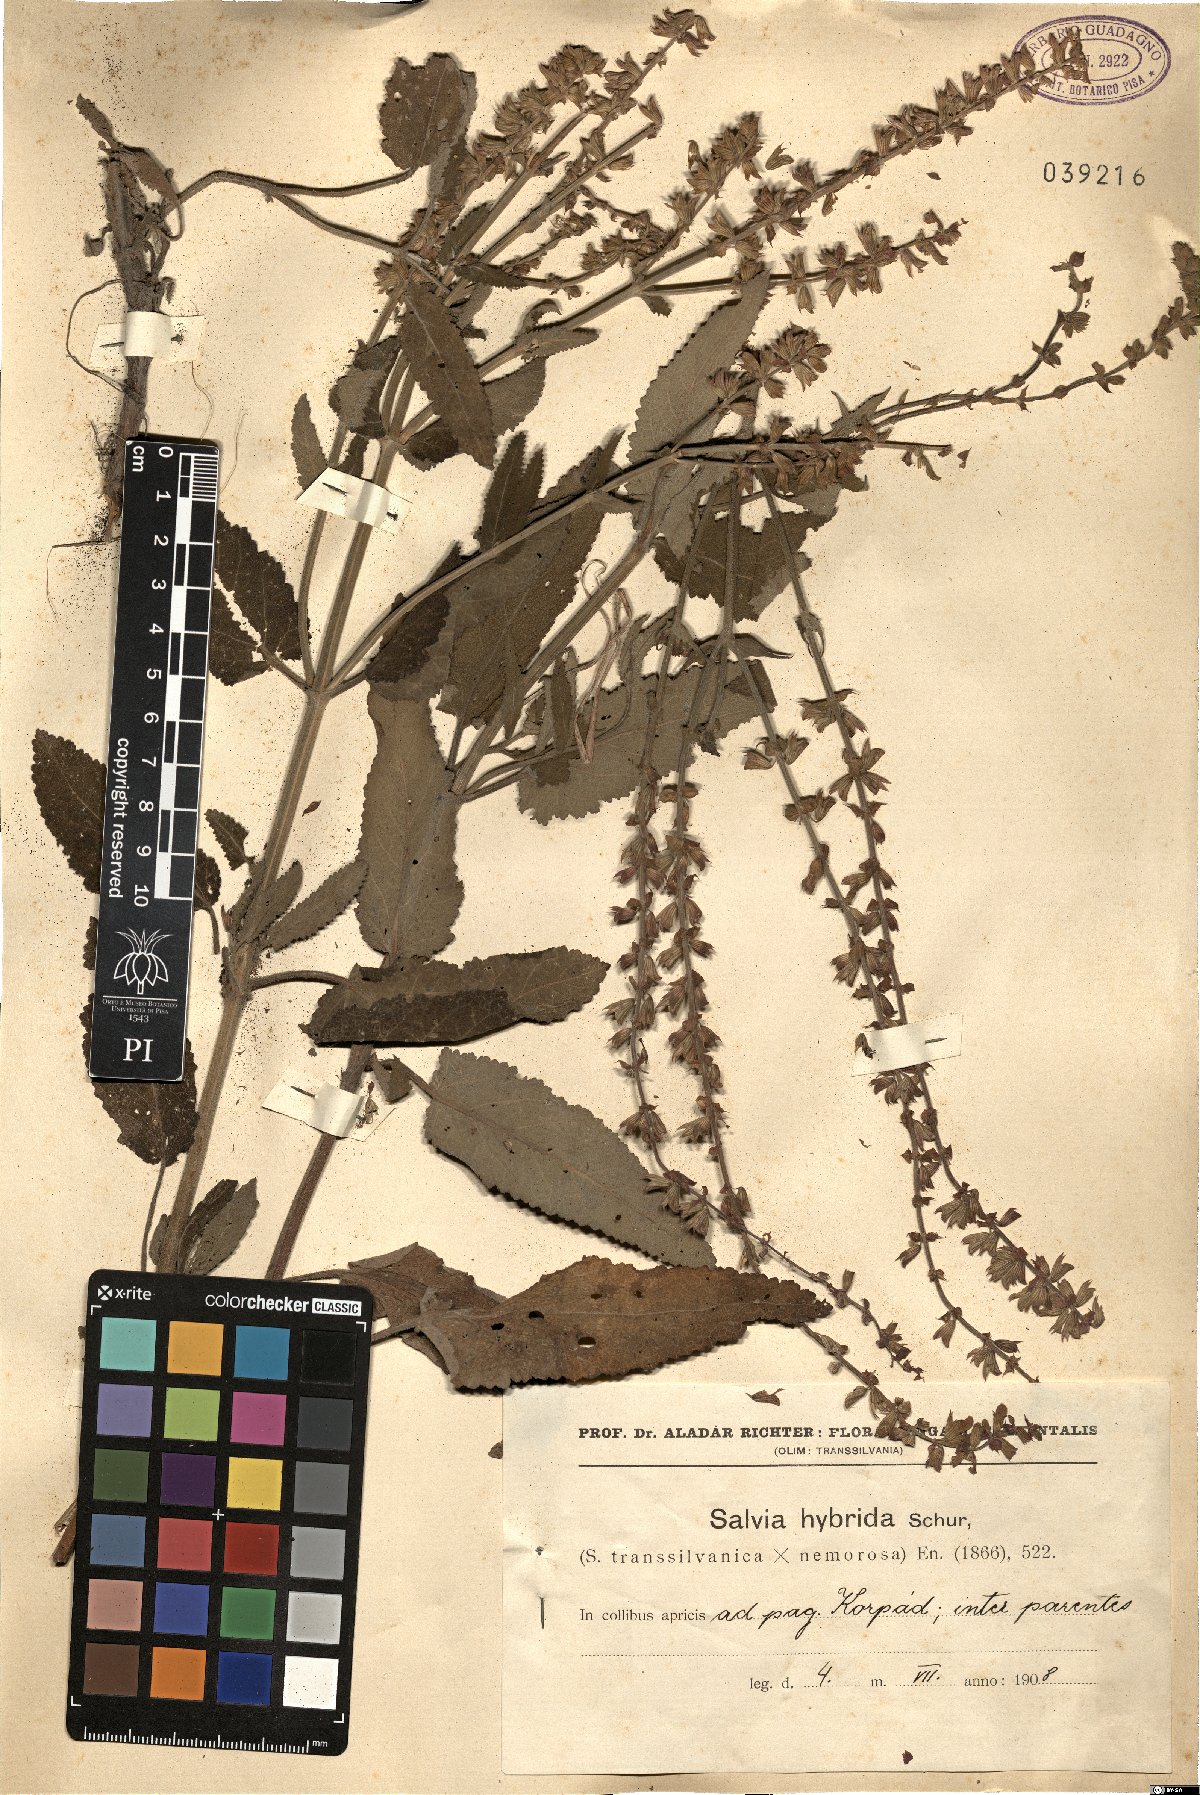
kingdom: Plantae
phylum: Tracheophyta
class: Magnoliopsida
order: Lamiales
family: Lamiaceae
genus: Salvia
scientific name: Salvia hybrida
